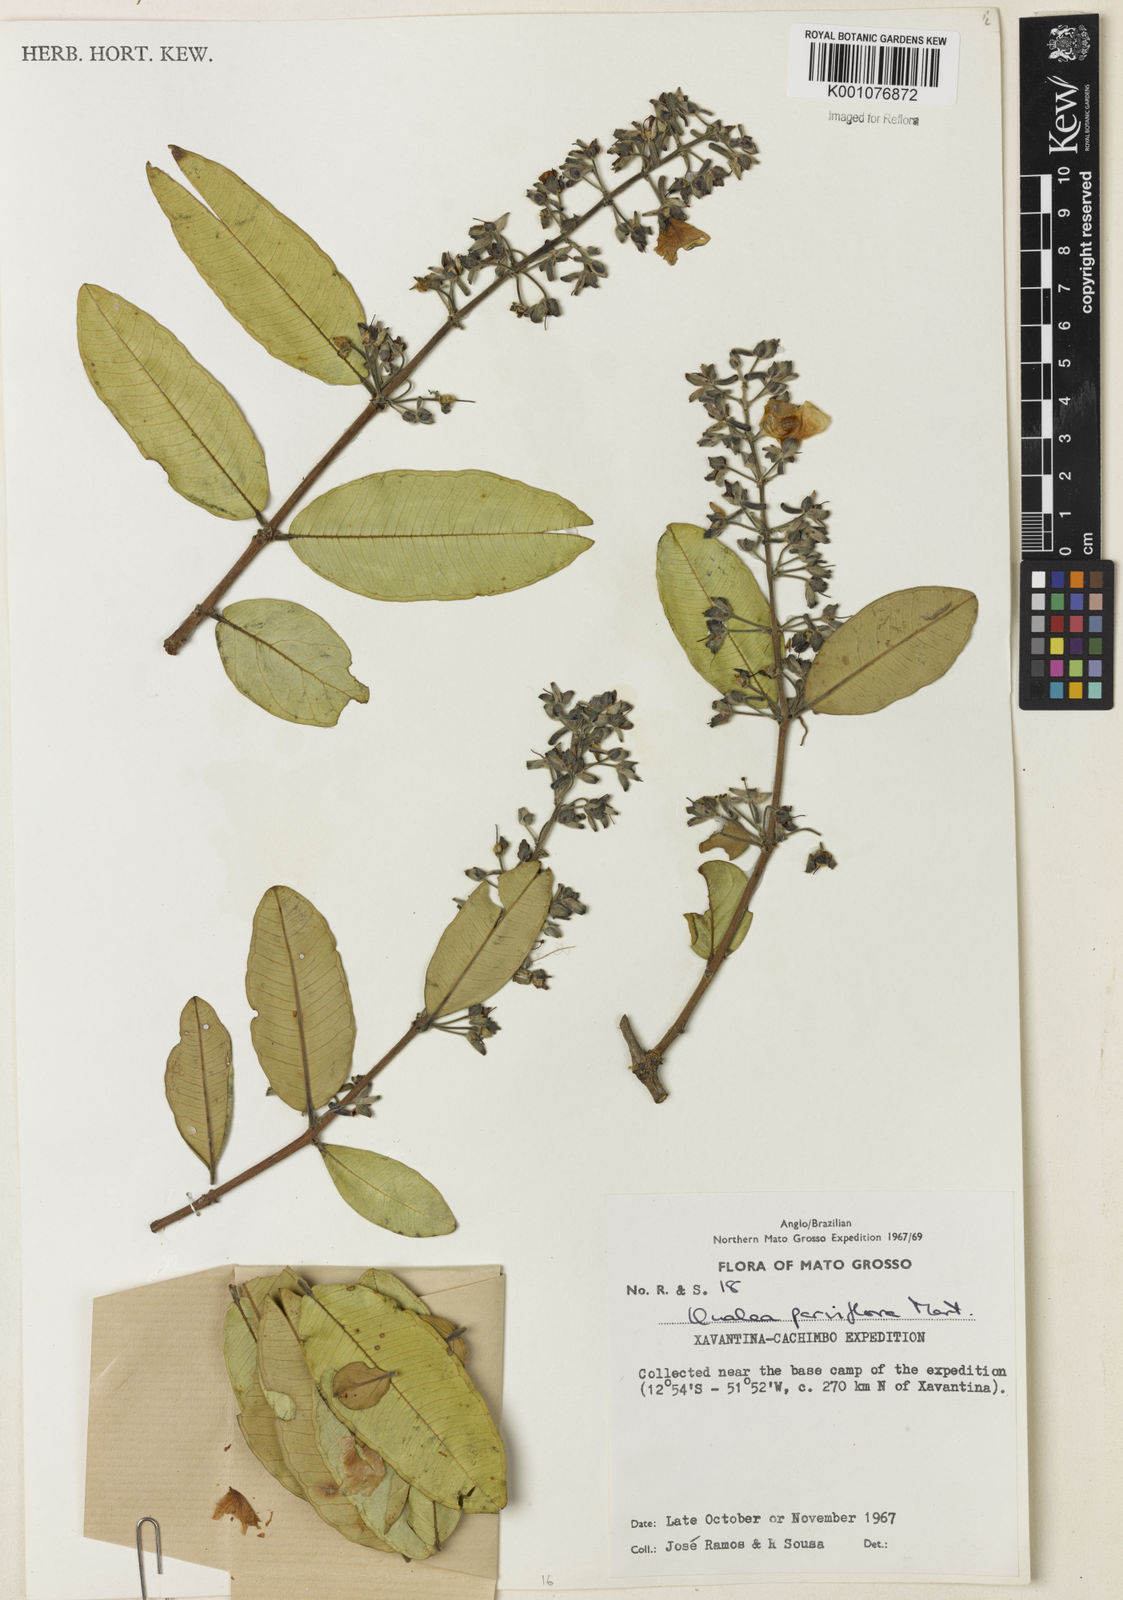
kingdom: Plantae
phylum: Tracheophyta
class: Magnoliopsida
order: Myrtales
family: Vochysiaceae
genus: Qualea
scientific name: Qualea parviflora
